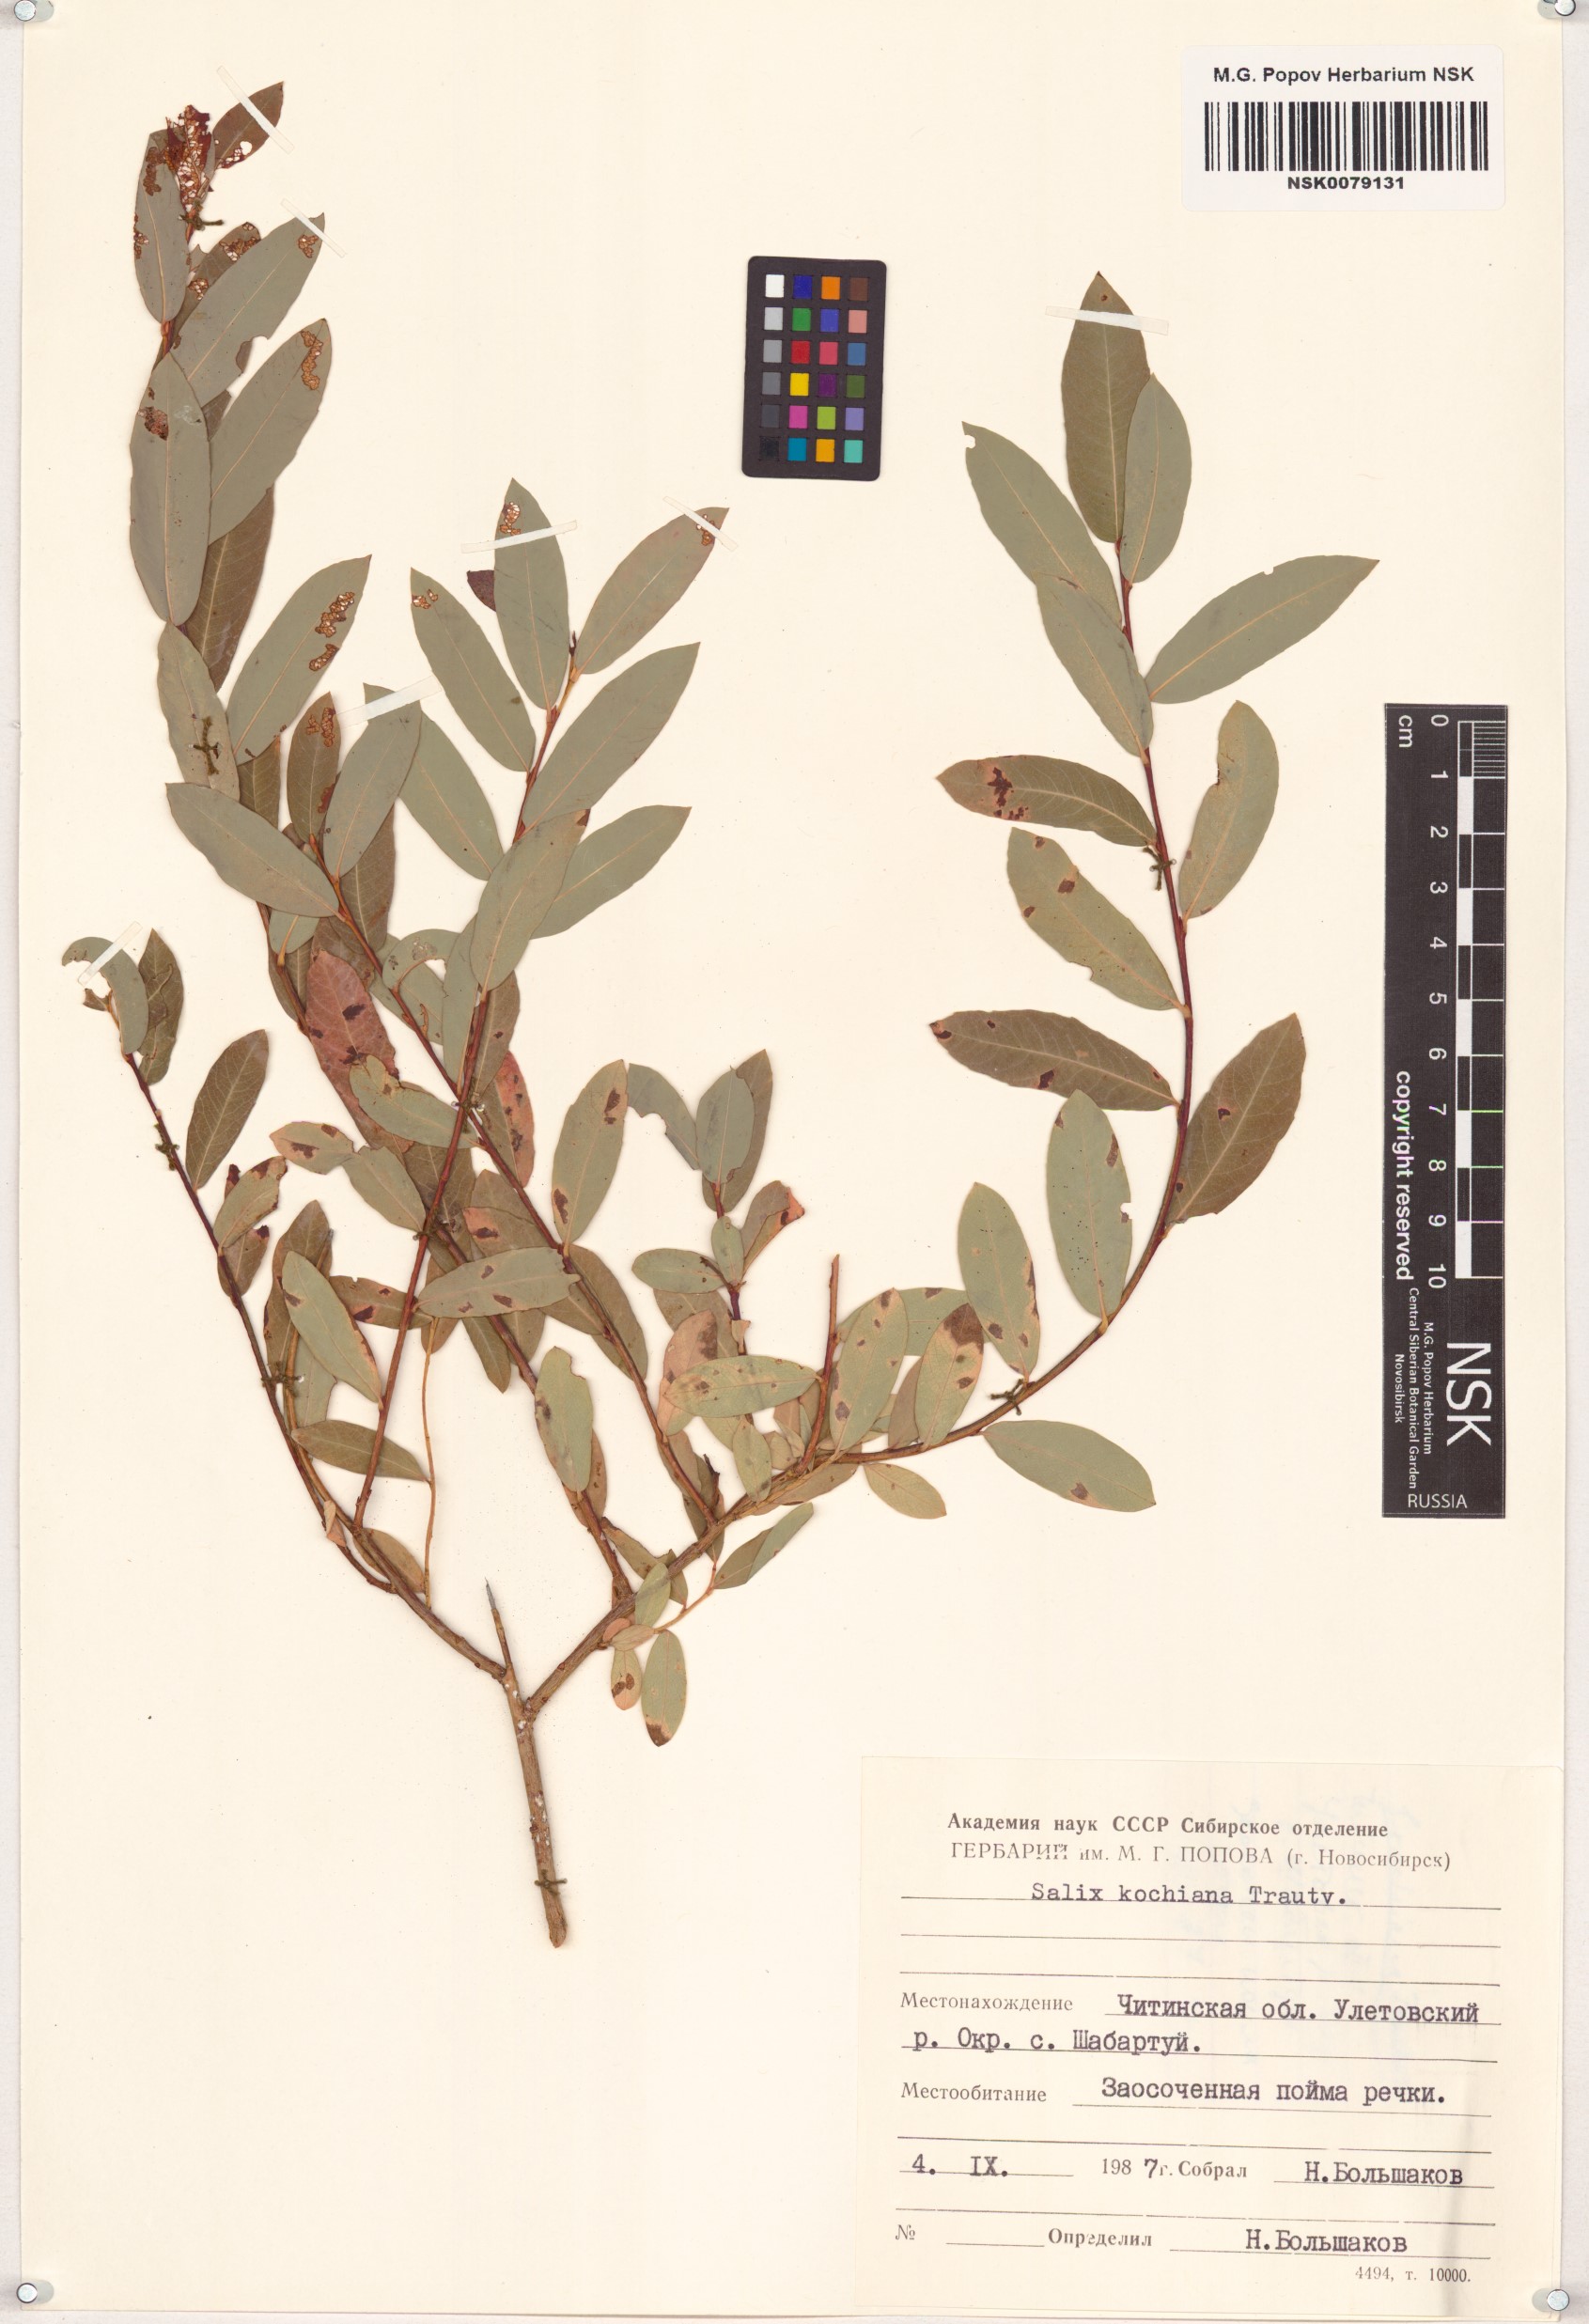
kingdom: Plantae
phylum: Tracheophyta
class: Magnoliopsida
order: Malpighiales
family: Salicaceae
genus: Salix
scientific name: Salix kochiana
